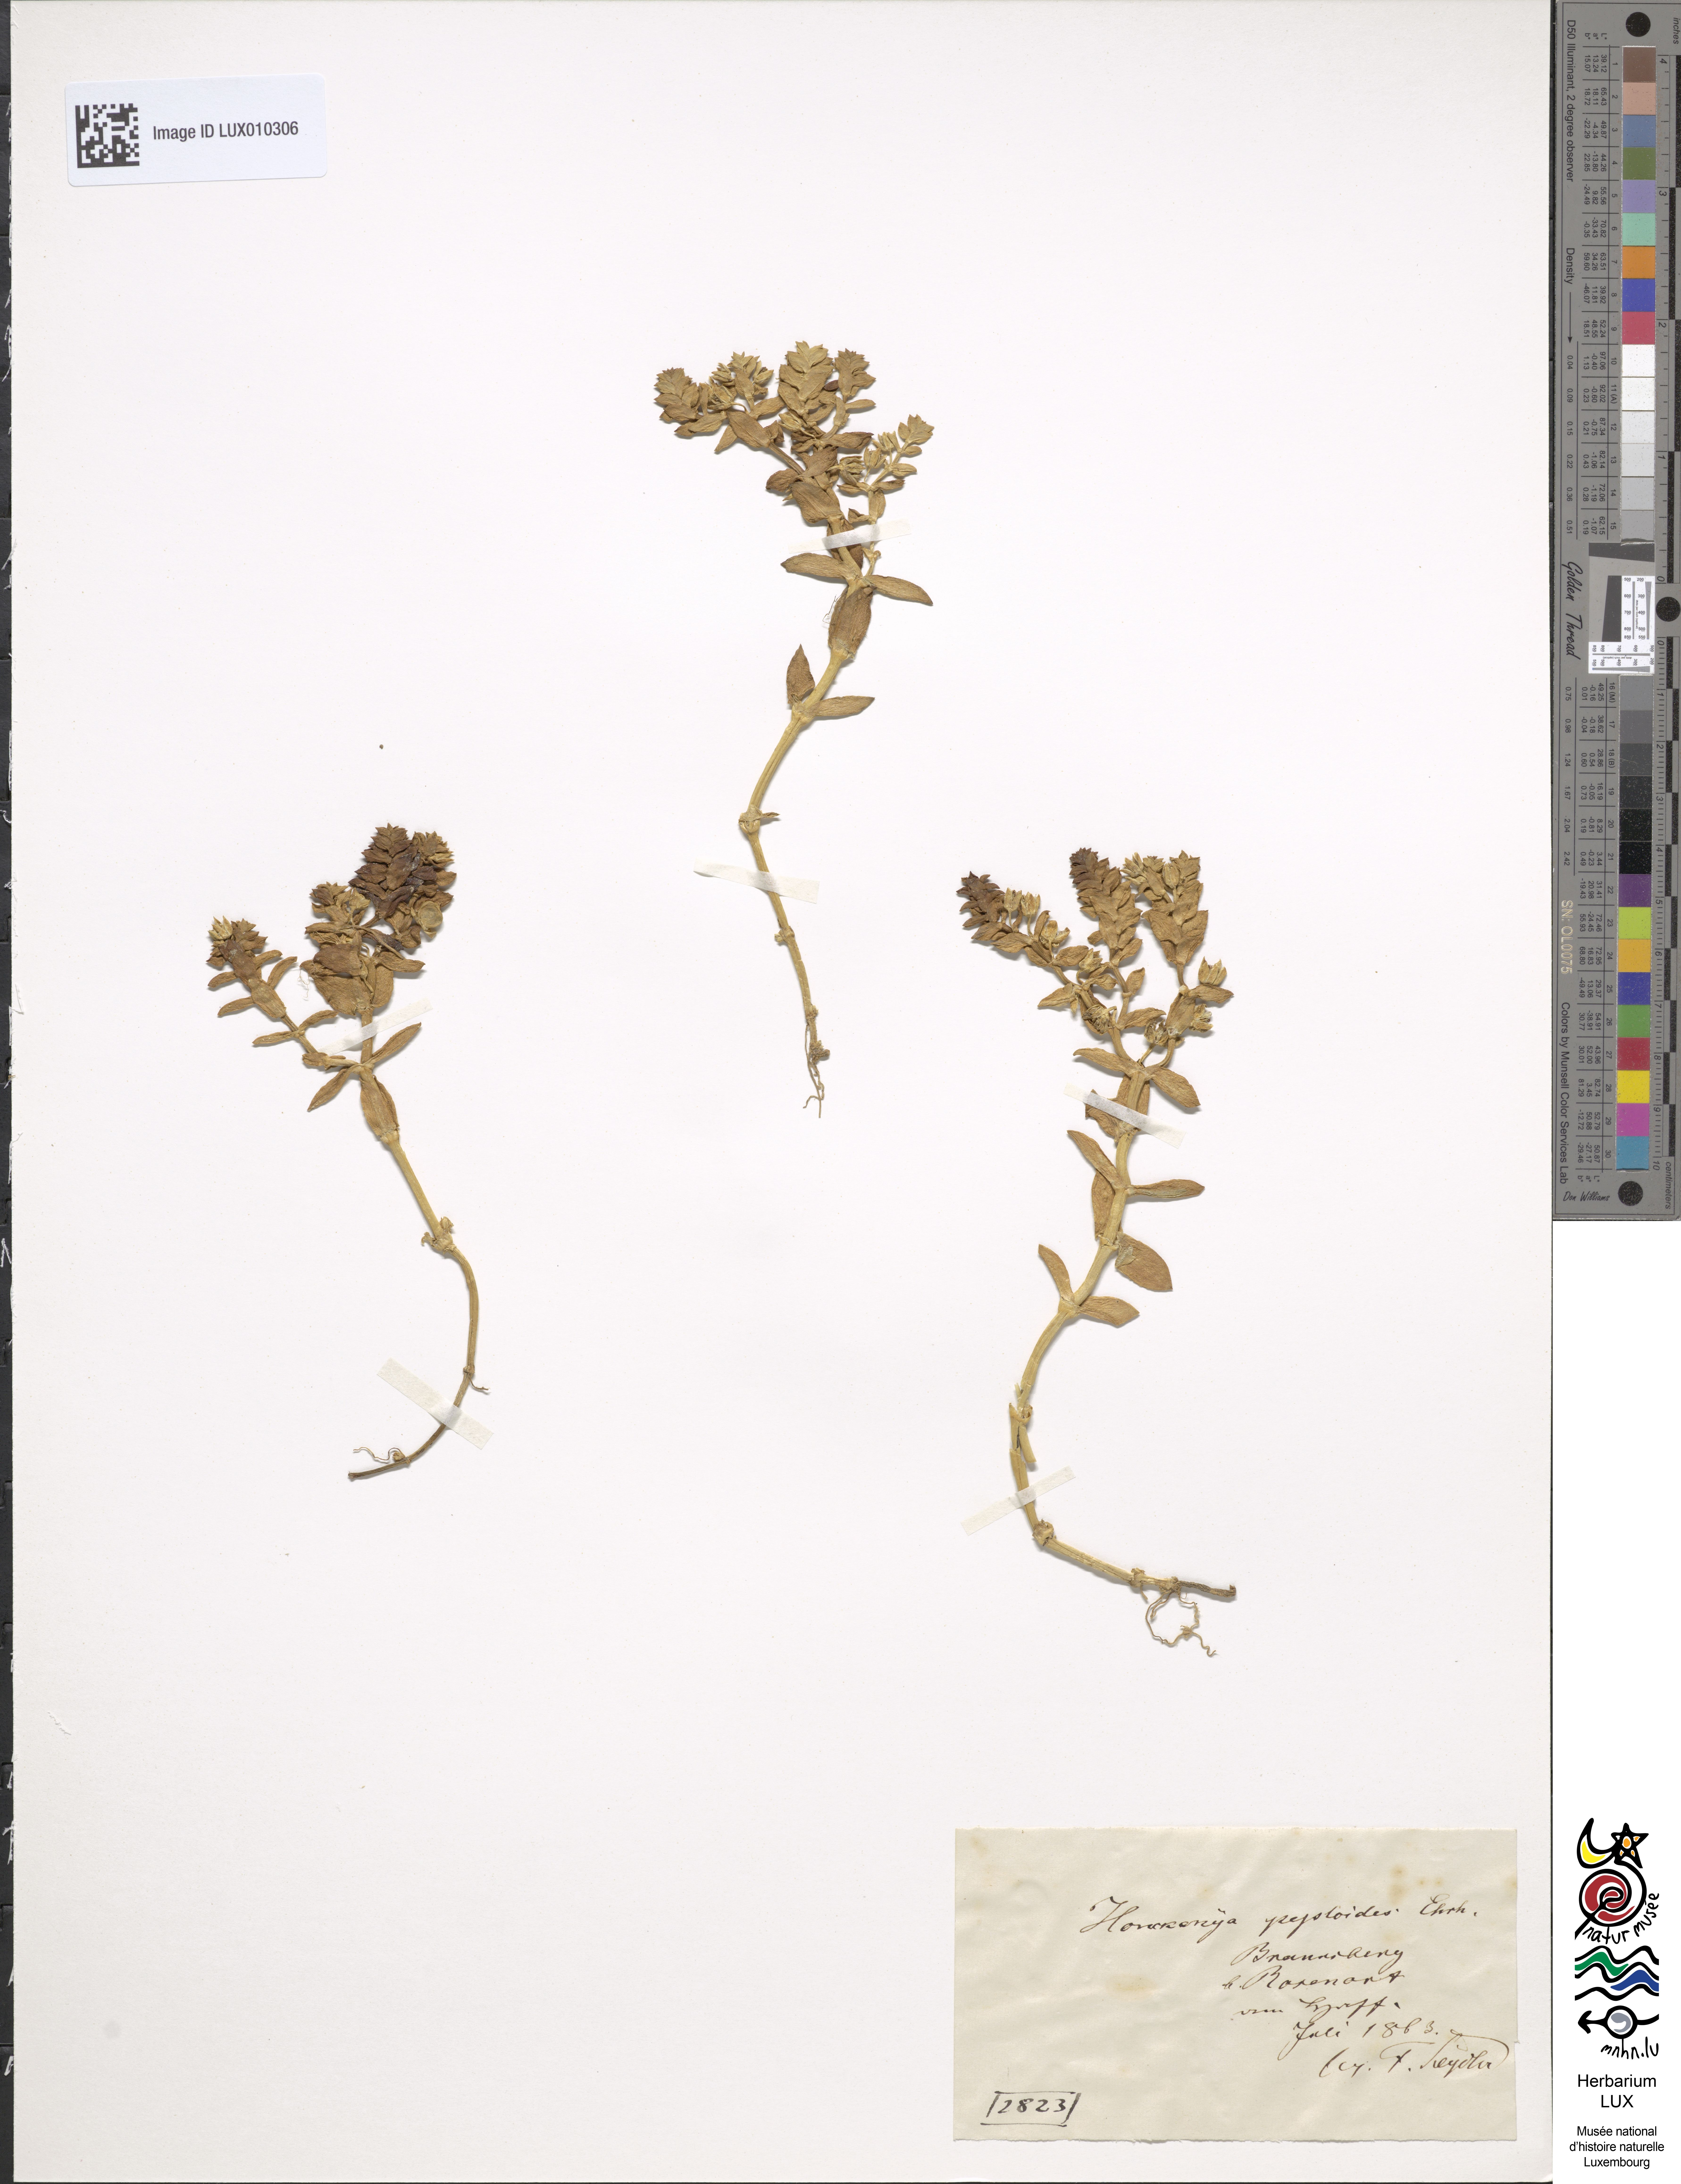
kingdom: Plantae
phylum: Tracheophyta
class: Magnoliopsida
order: Caryophyllales
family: Caryophyllaceae
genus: Honckenya
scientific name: Honckenya peploides
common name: Sea sandwort
